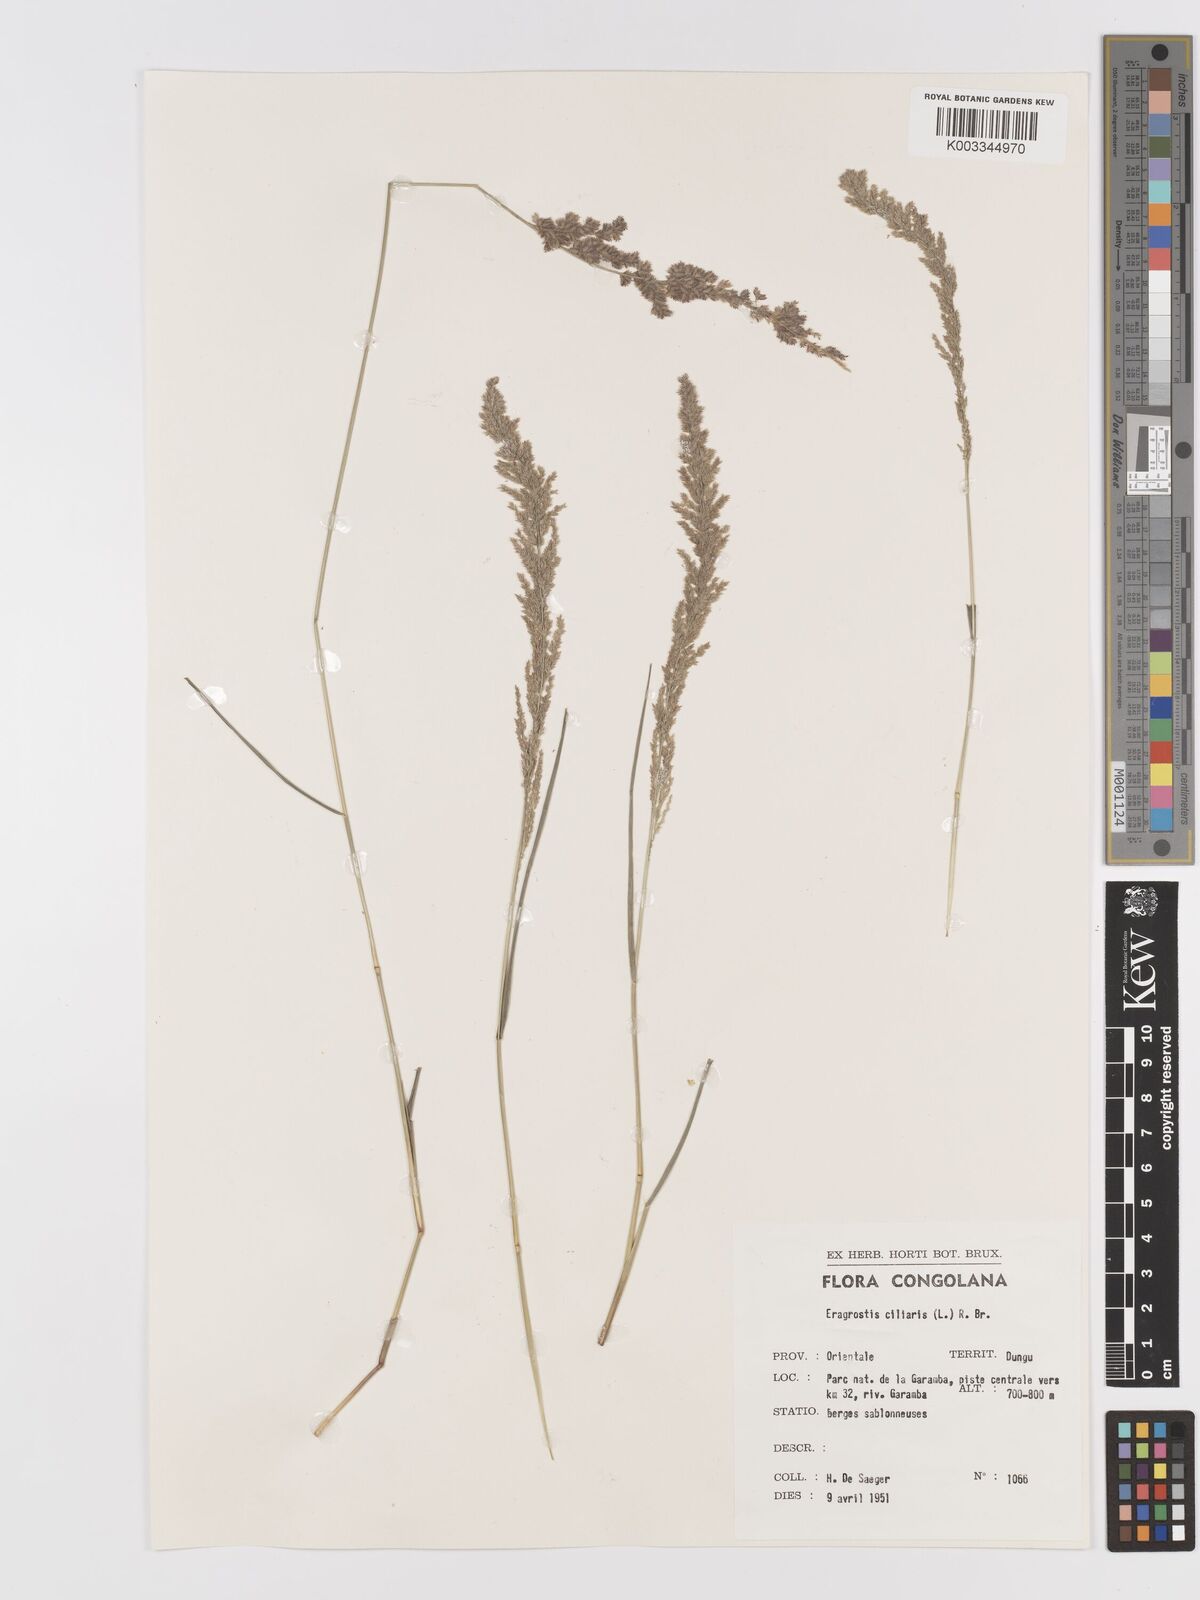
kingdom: Plantae
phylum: Tracheophyta
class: Liliopsida
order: Poales
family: Poaceae
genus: Eragrostis
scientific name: Eragrostis ciliaris
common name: Gophertail lovegrass
